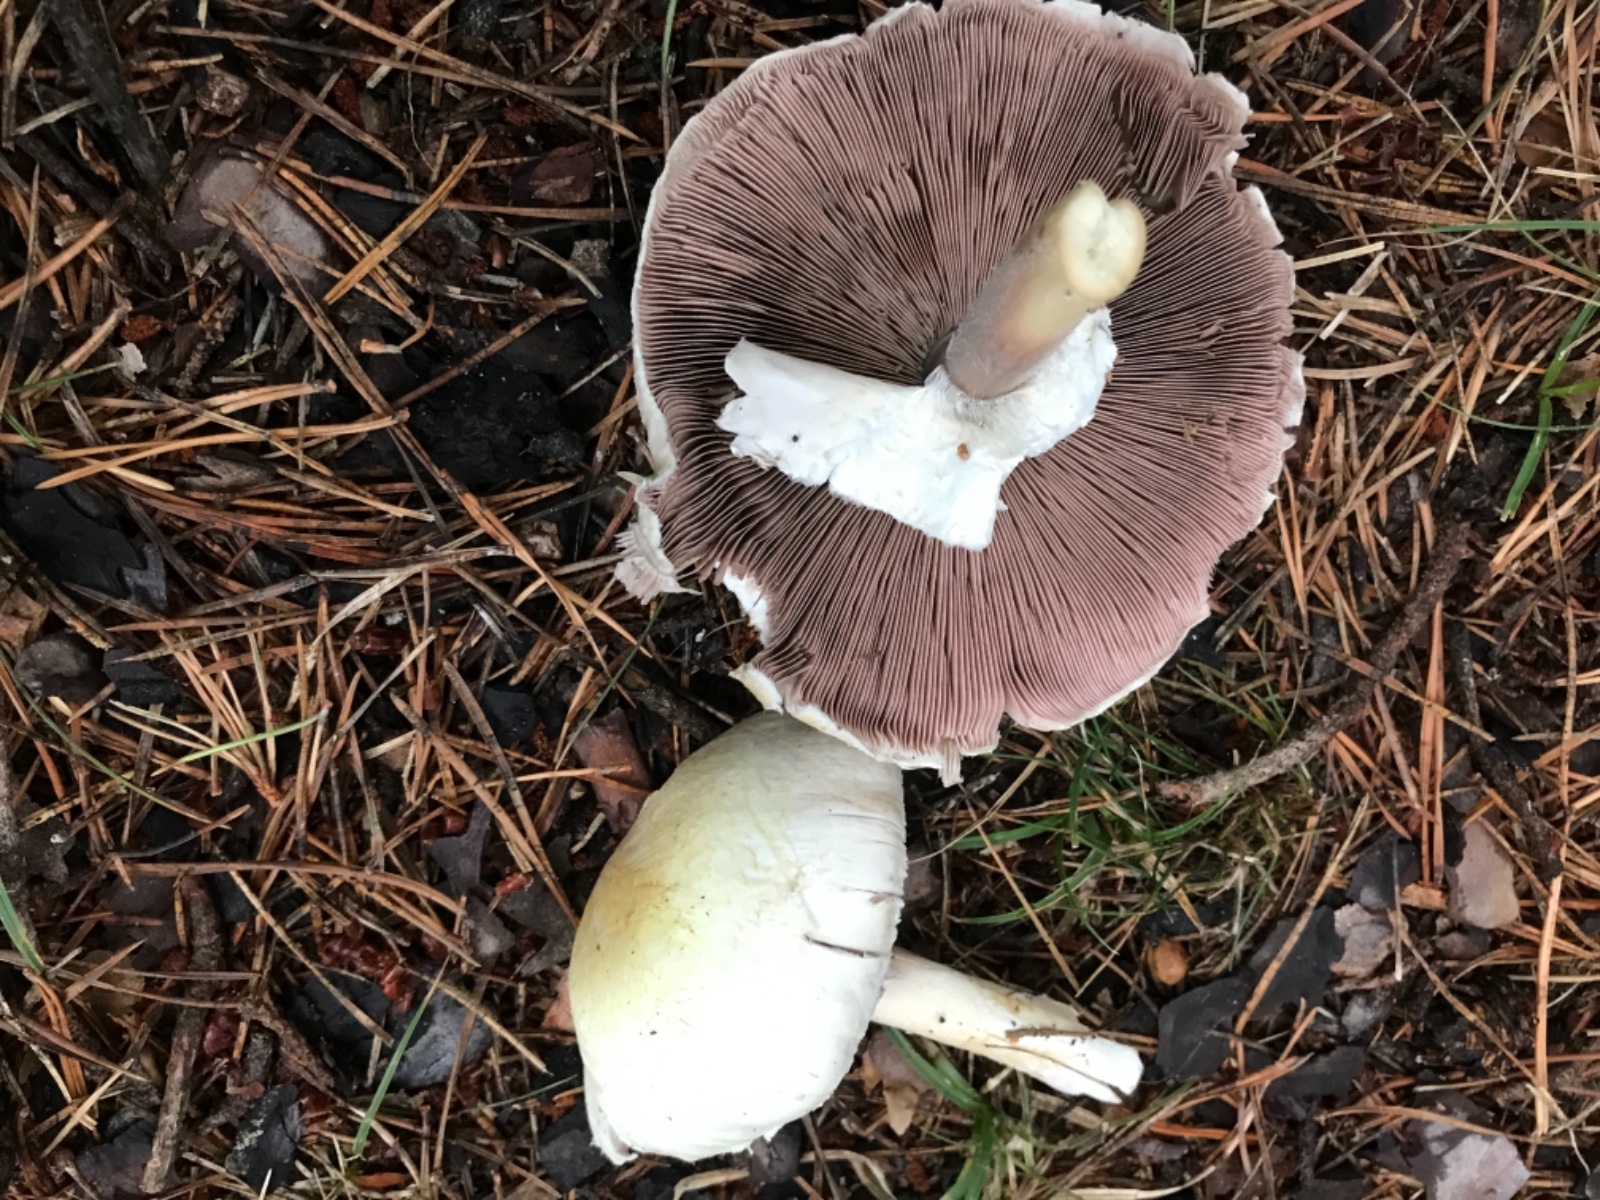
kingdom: Fungi
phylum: Basidiomycota
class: Agaricomycetes
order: Agaricales
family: Agaricaceae
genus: Agaricus
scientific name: Agaricus
